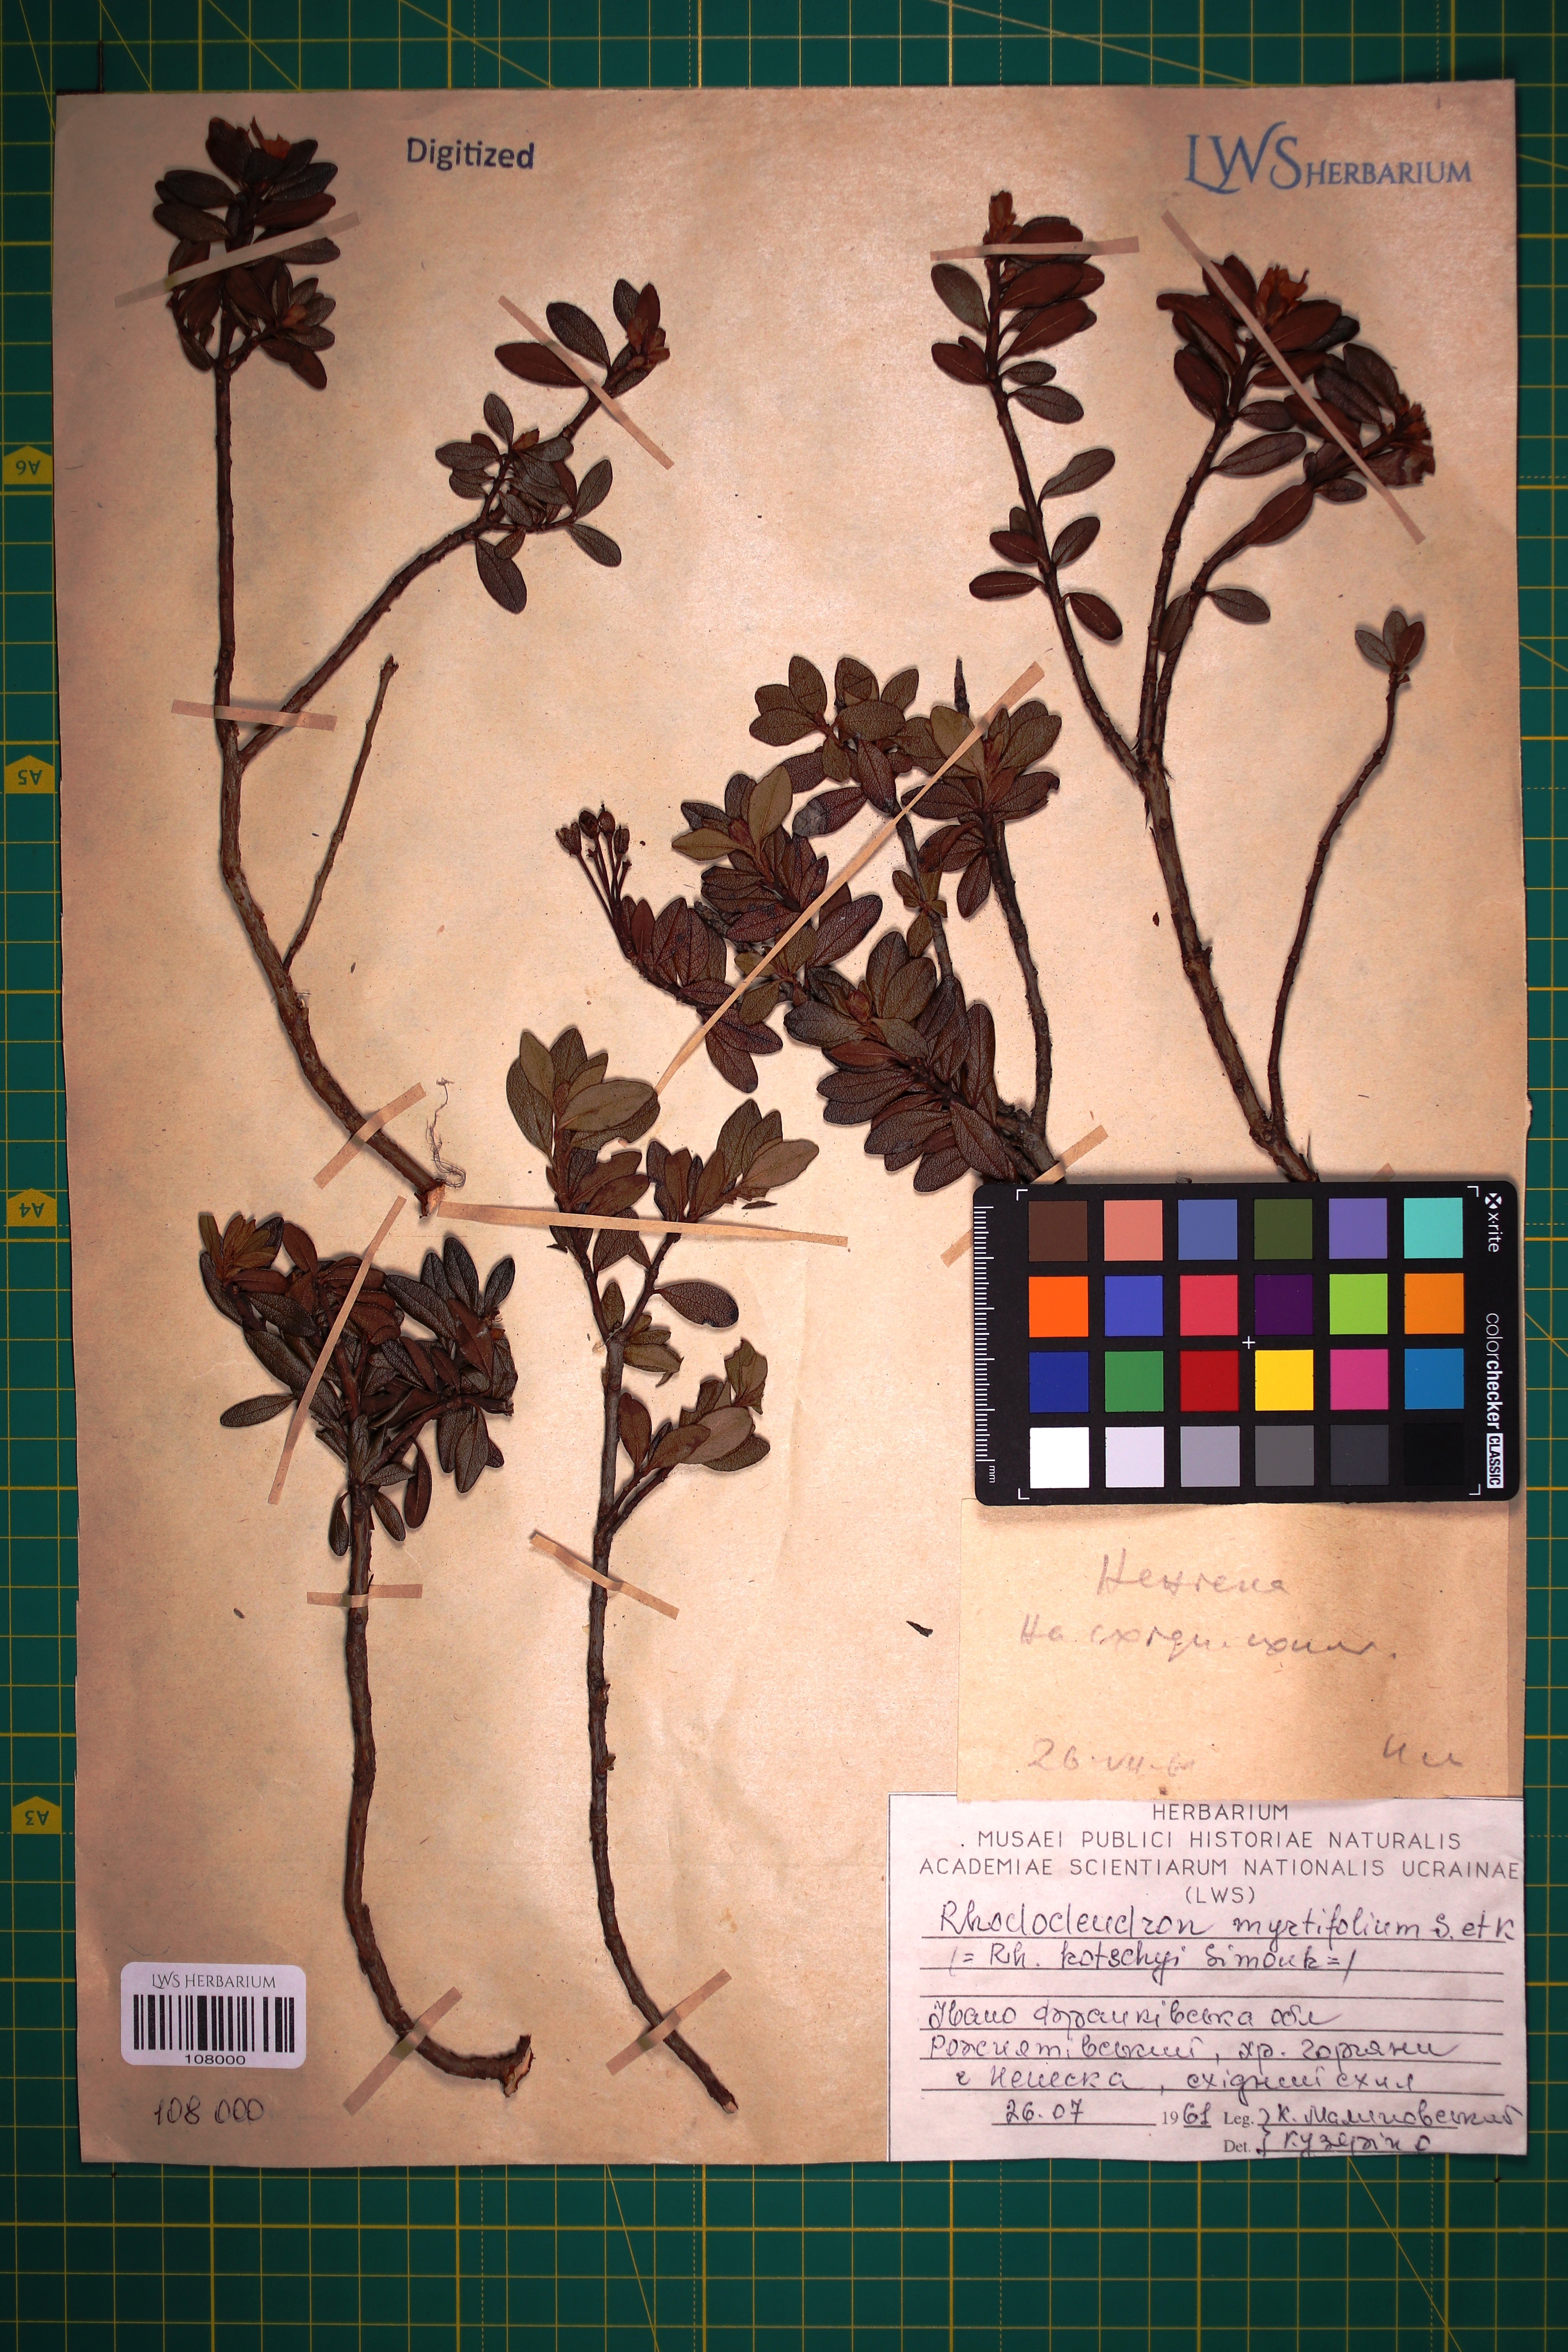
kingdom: Plantae
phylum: Tracheophyta
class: Magnoliopsida
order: Ericales
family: Ericaceae
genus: Rhododendron
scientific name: Rhododendron kotschyi
